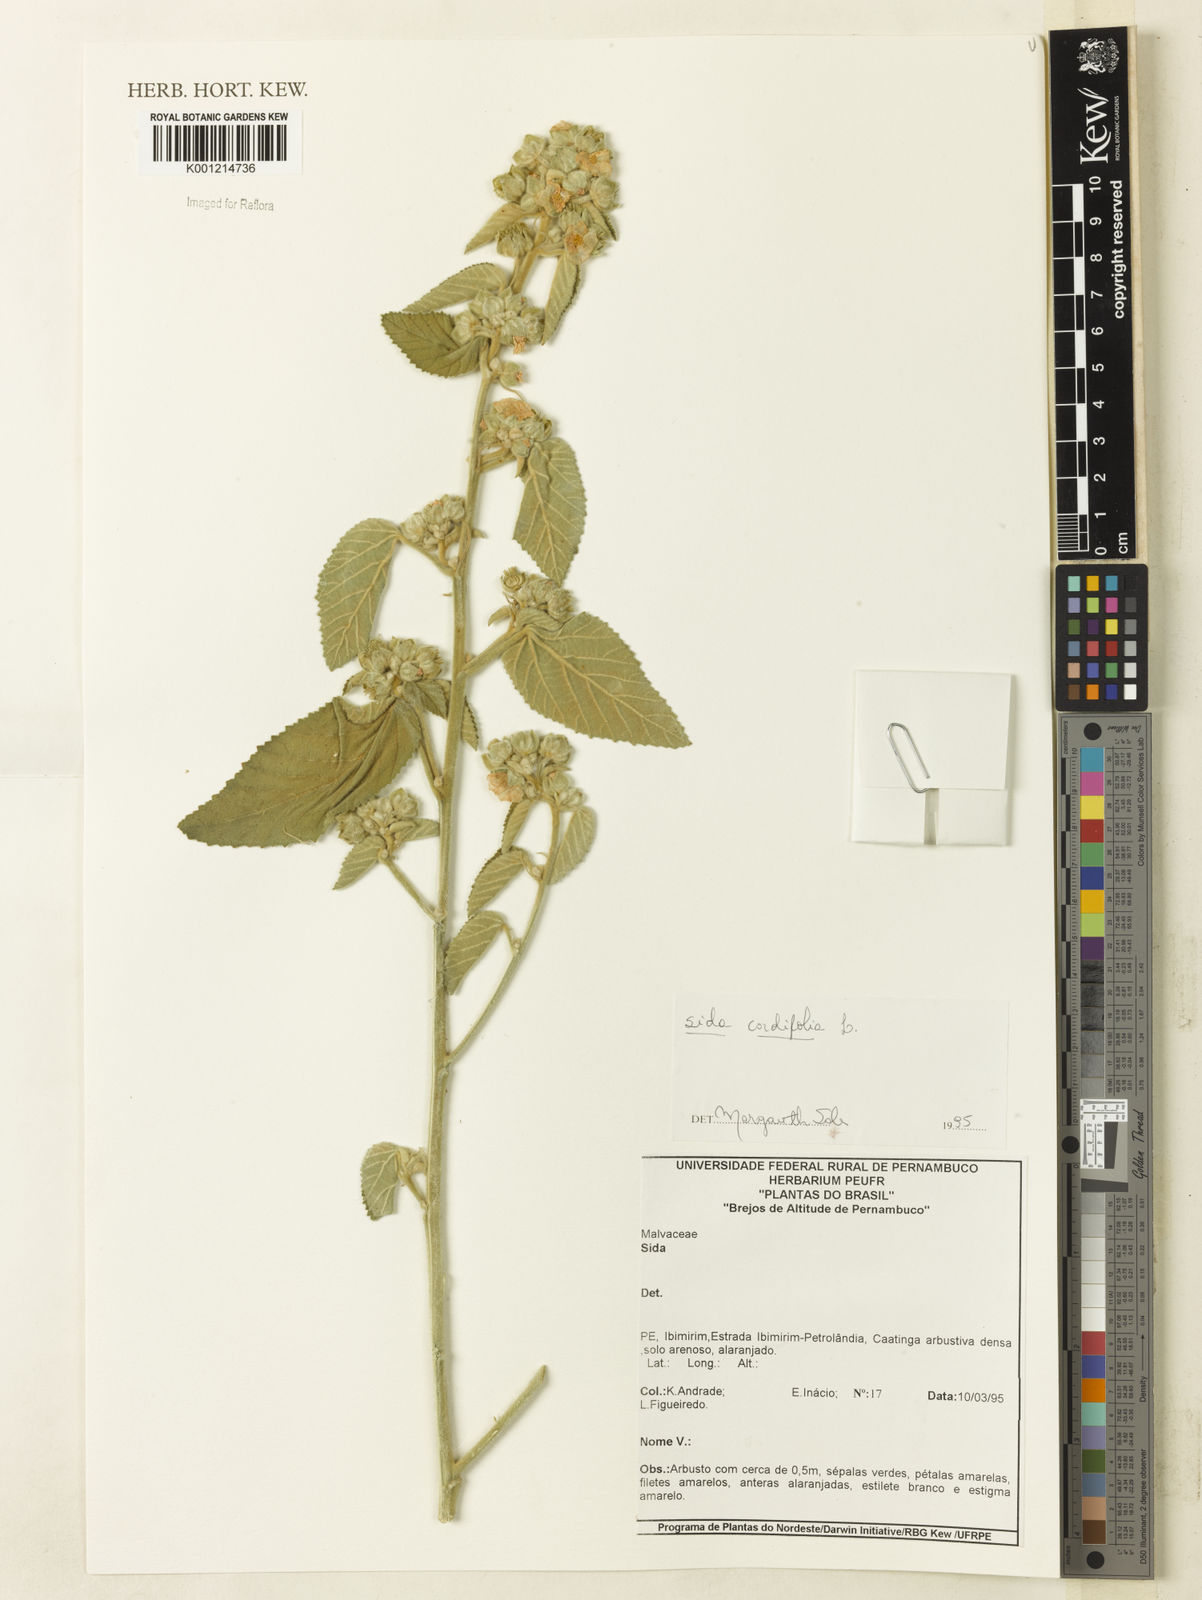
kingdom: Plantae
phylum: Tracheophyta
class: Magnoliopsida
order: Malvales
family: Malvaceae
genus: Sida
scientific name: Sida cordifolia
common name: Ilima
